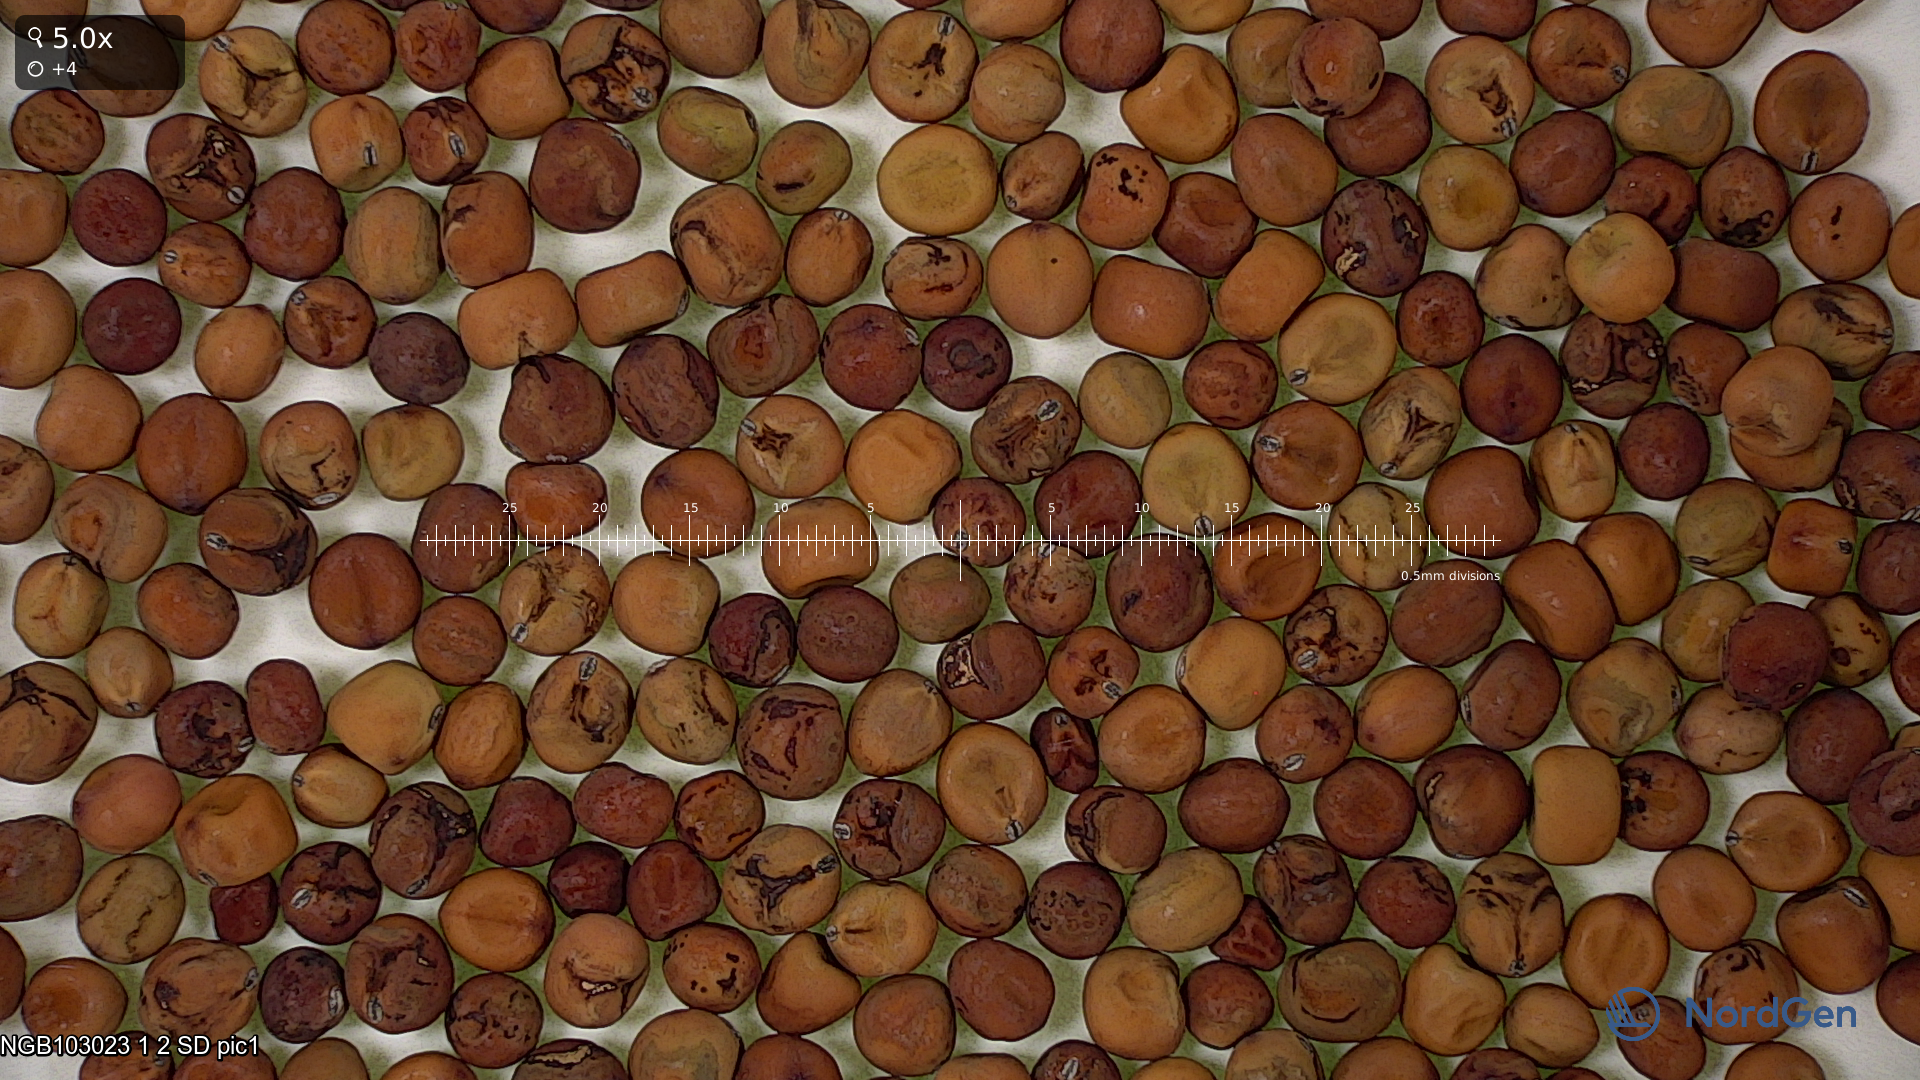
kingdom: Plantae
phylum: Tracheophyta
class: Magnoliopsida
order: Fabales
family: Fabaceae
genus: Lathyrus
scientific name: Lathyrus oleraceus
